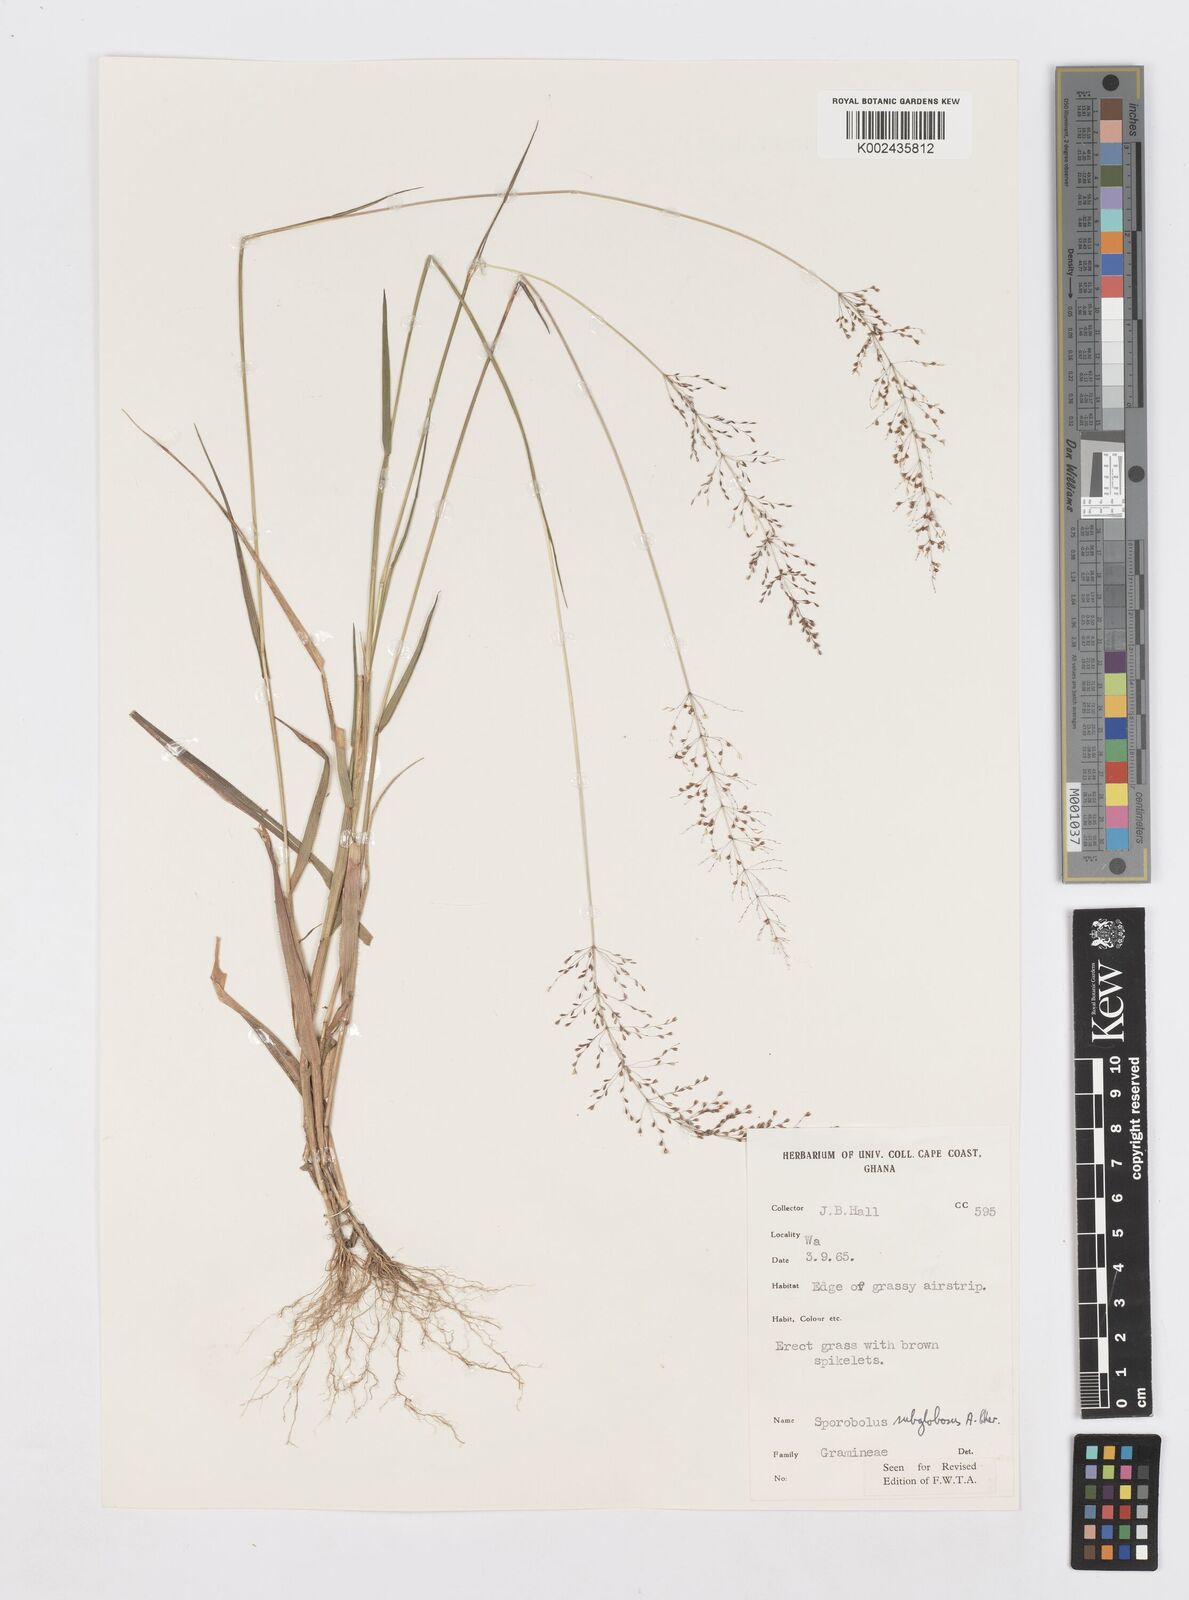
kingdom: Plantae
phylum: Tracheophyta
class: Liliopsida
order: Poales
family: Poaceae
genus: Sporobolus
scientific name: Sporobolus subglobosus
